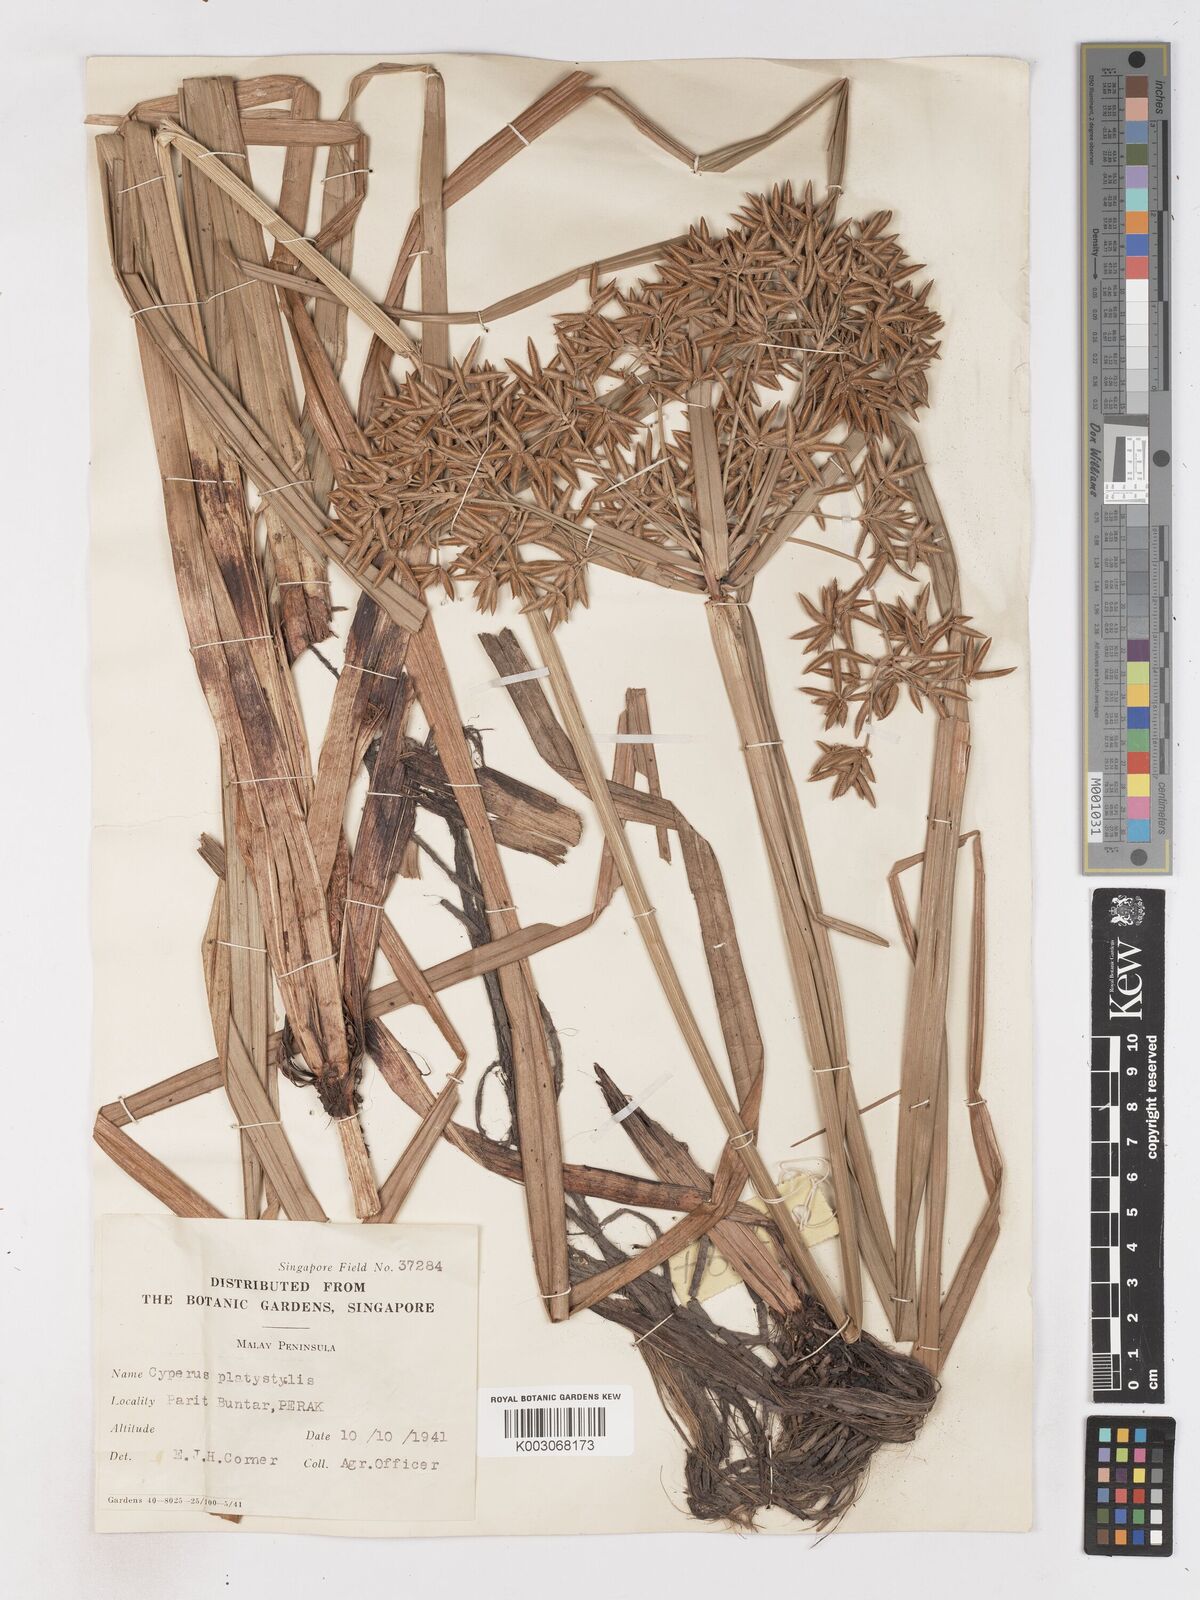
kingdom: Plantae
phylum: Tracheophyta
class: Liliopsida
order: Poales
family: Cyperaceae
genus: Cyperus
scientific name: Cyperus platystylis
